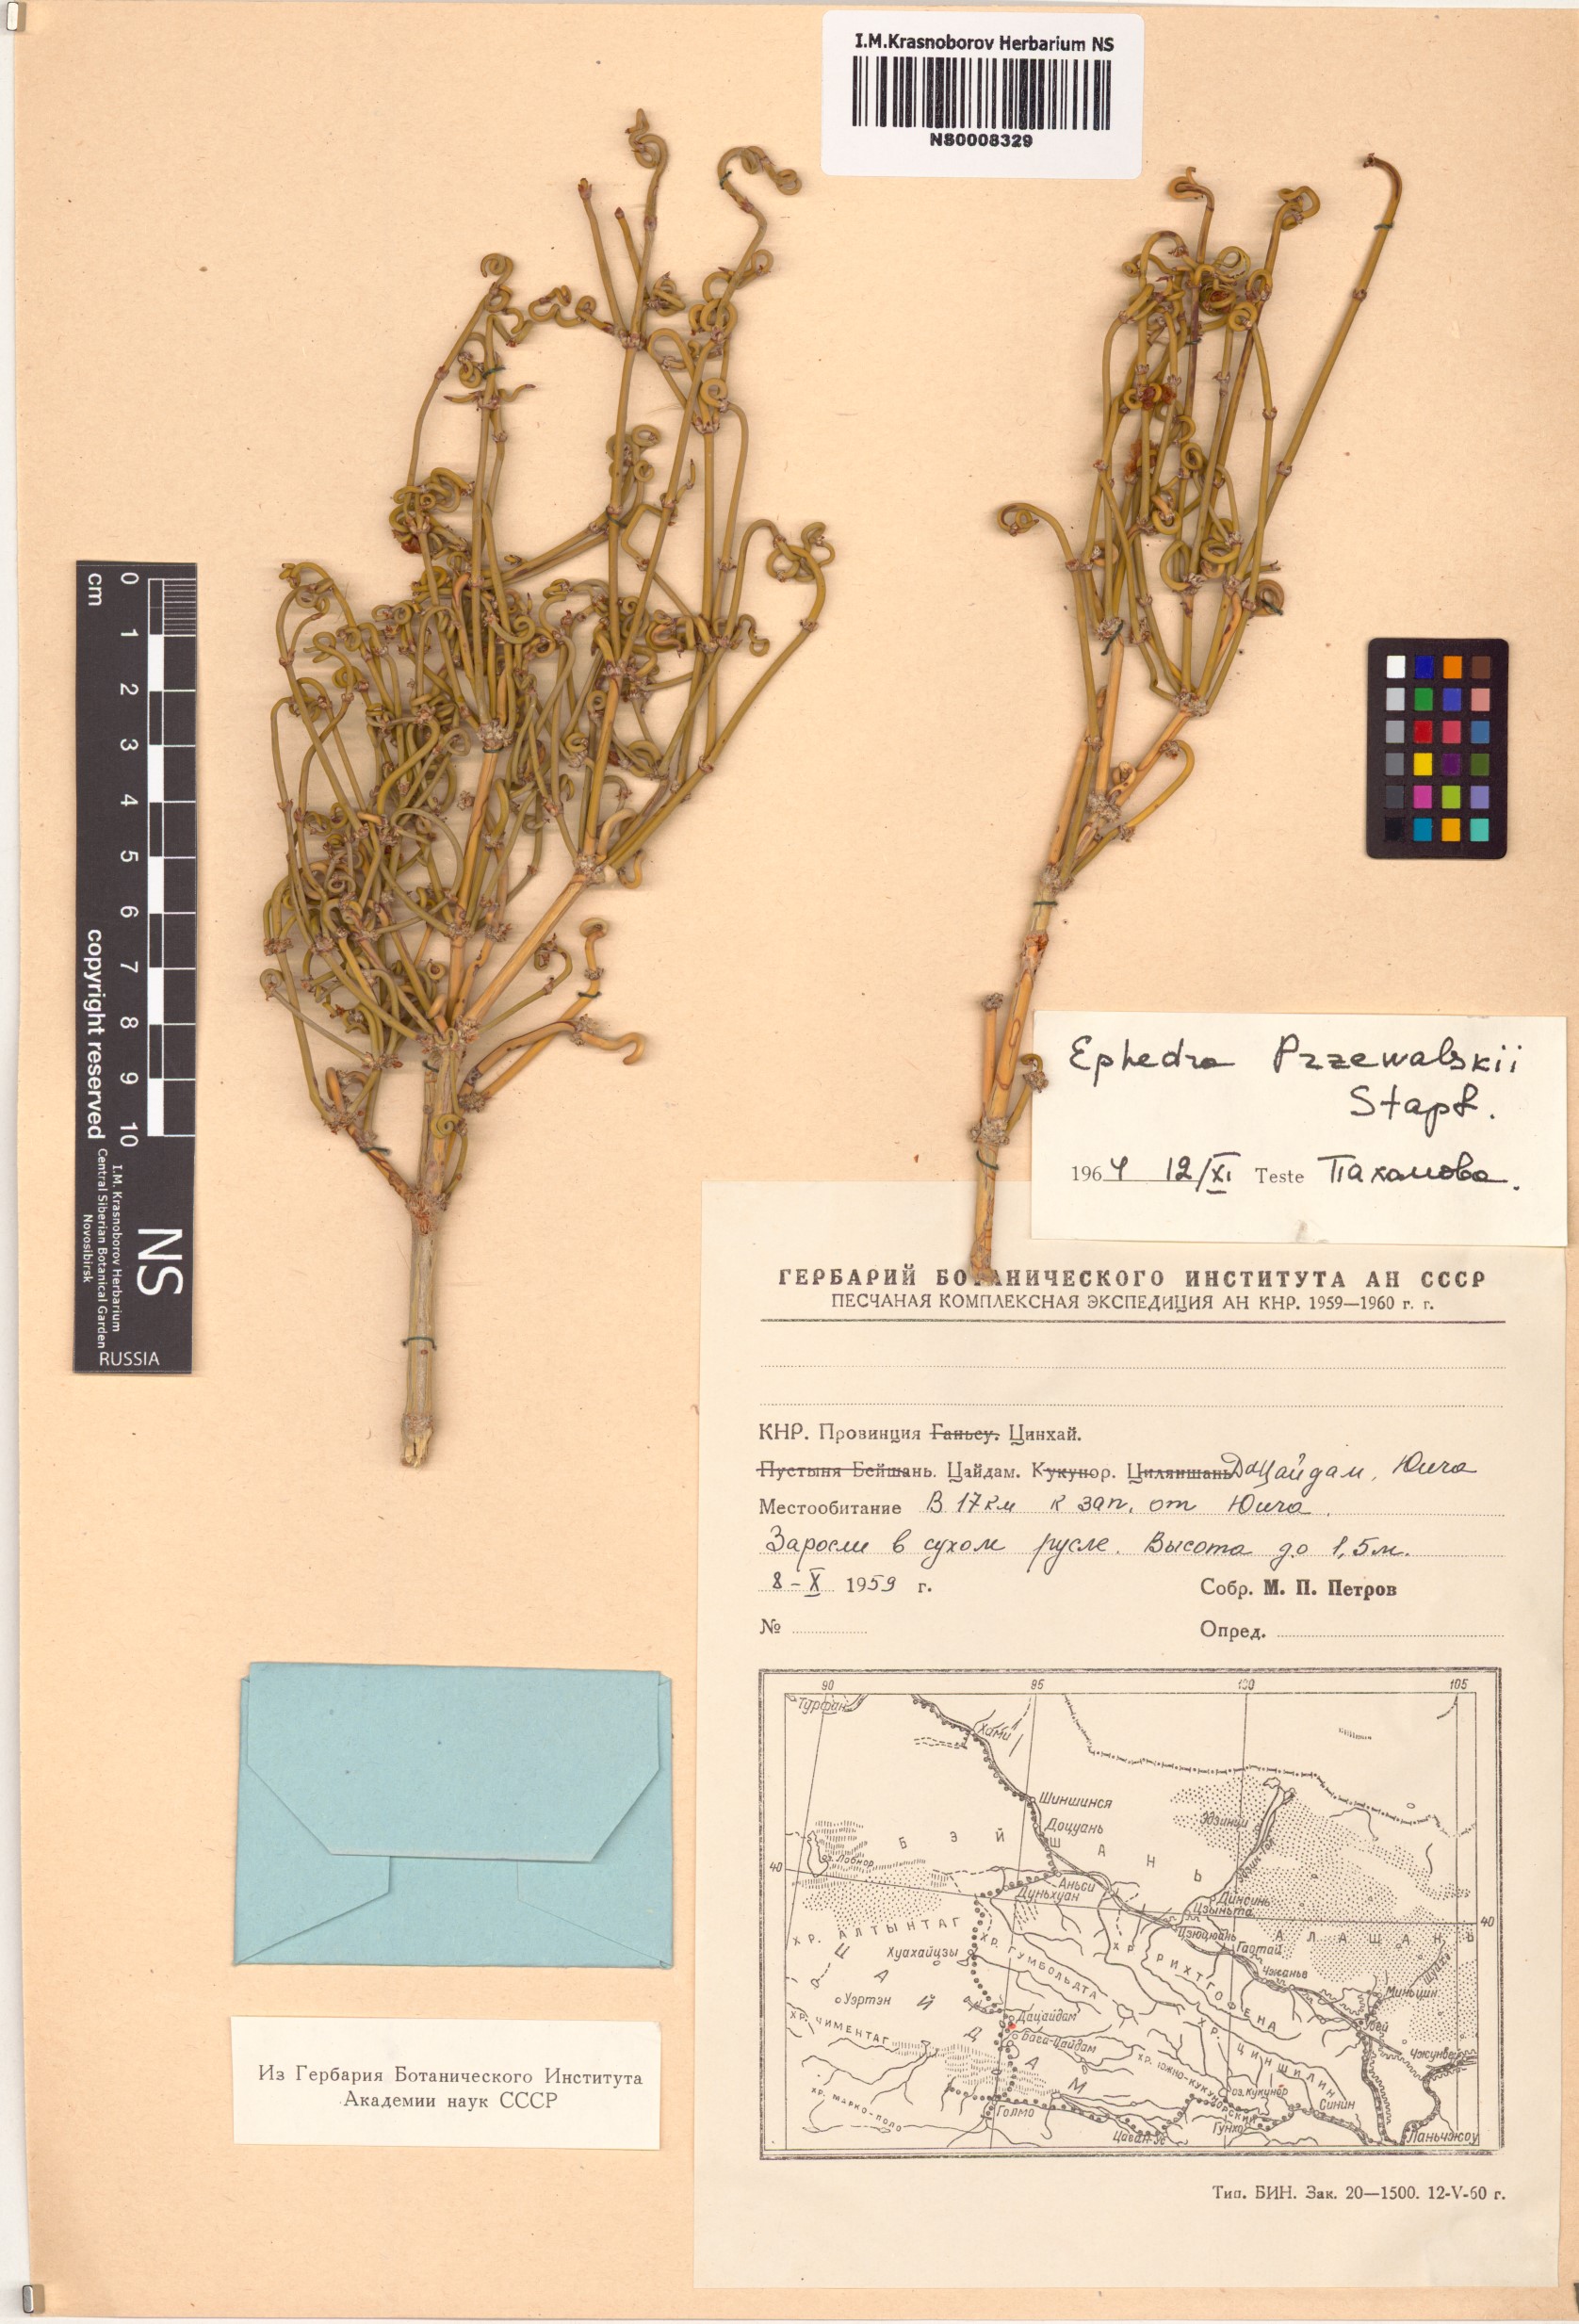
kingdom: Plantae
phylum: Tracheophyta
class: Gnetopsida
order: Ephedrales
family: Ephedraceae
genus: Ephedra
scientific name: Ephedra przewalskii
